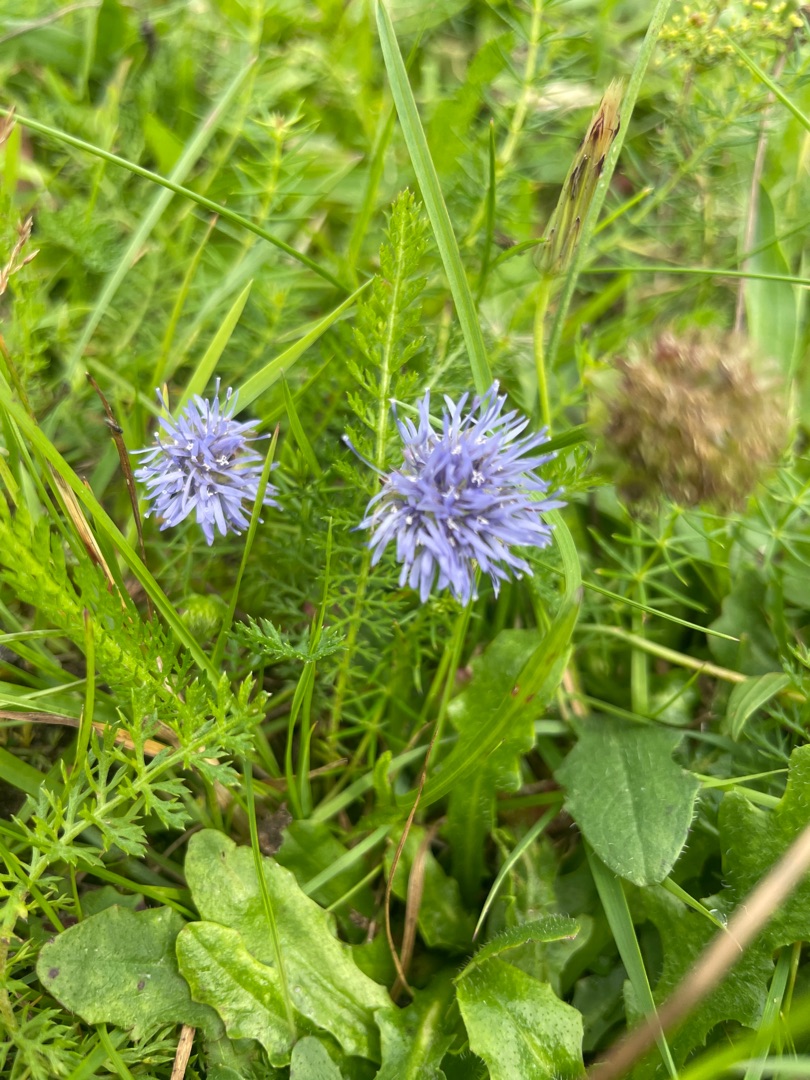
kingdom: Plantae
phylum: Tracheophyta
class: Magnoliopsida
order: Asterales
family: Campanulaceae
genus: Jasione
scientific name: Jasione montana
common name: Blåmunke
